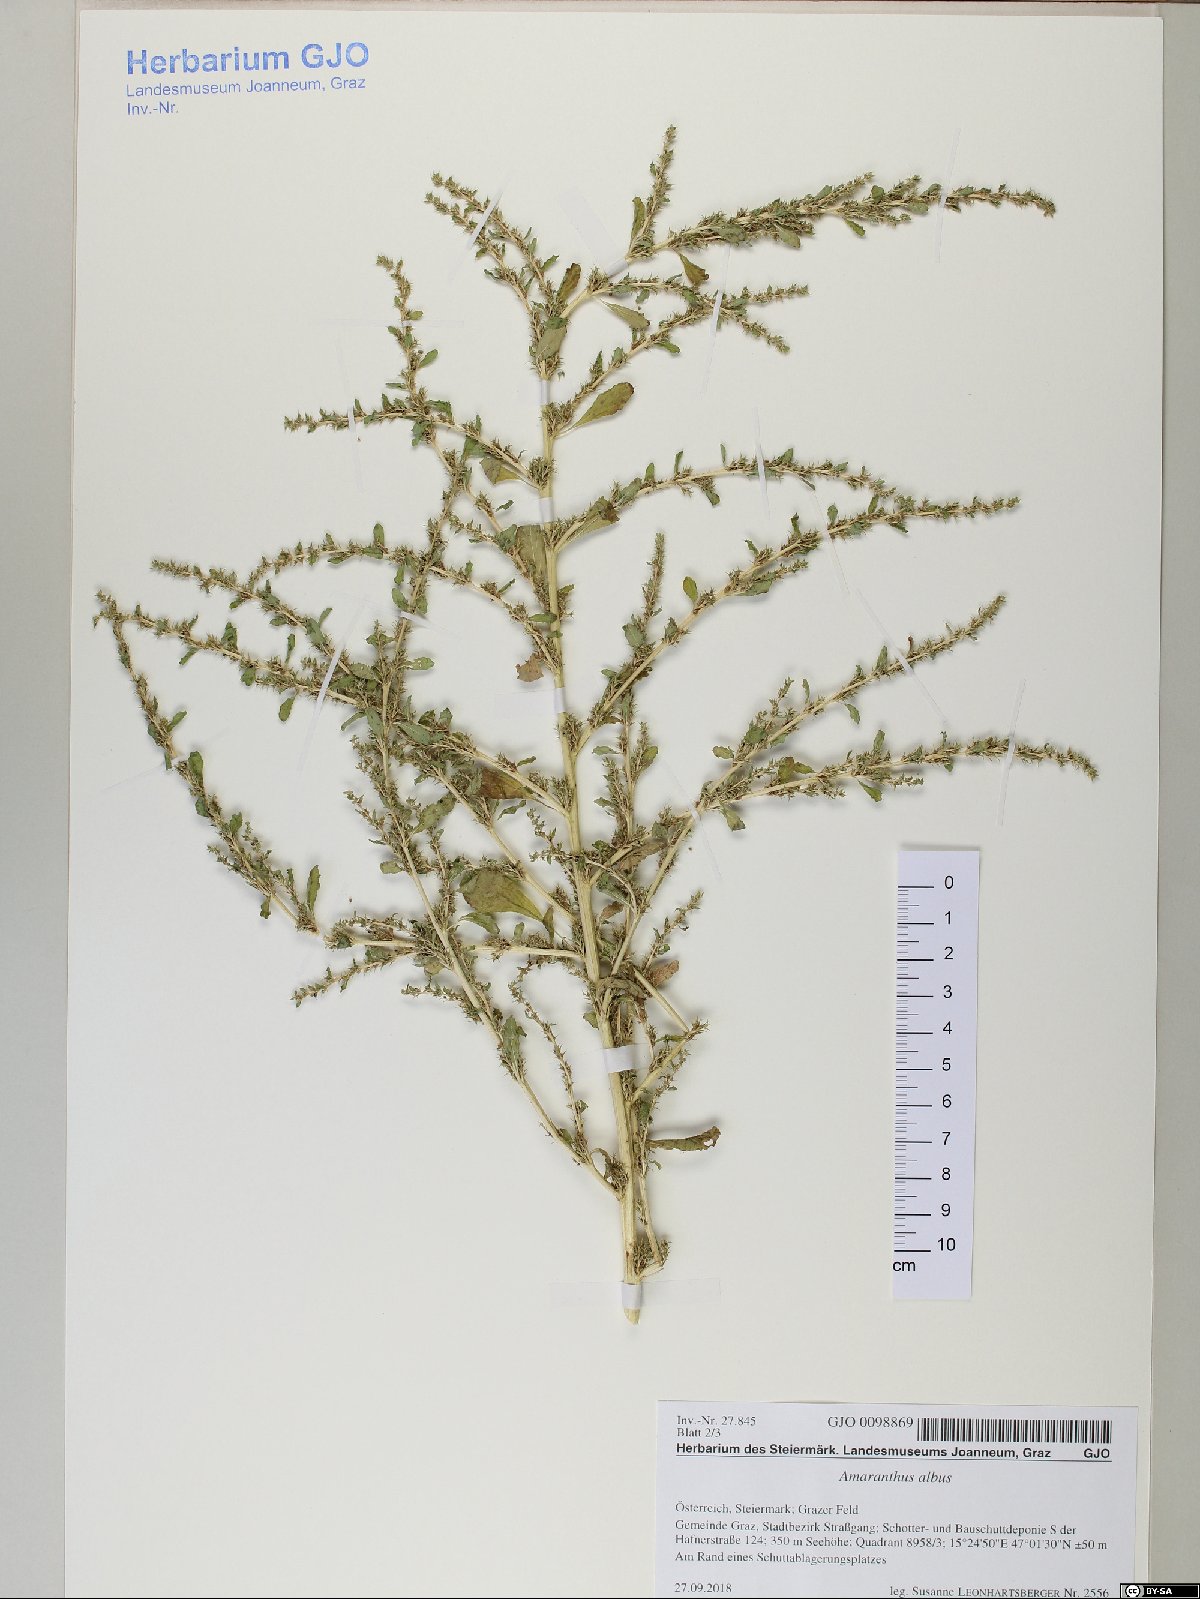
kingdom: Plantae
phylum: Tracheophyta
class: Magnoliopsida
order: Caryophyllales
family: Amaranthaceae
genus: Amaranthus
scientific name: Amaranthus albus
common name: White pigweed
